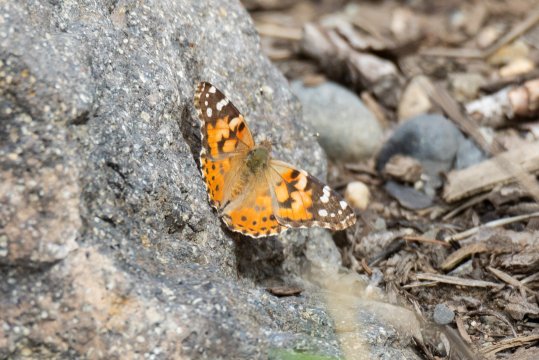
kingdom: Animalia
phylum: Arthropoda
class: Insecta
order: Lepidoptera
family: Nymphalidae
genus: Vanessa
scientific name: Vanessa cardui
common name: Painted Lady
